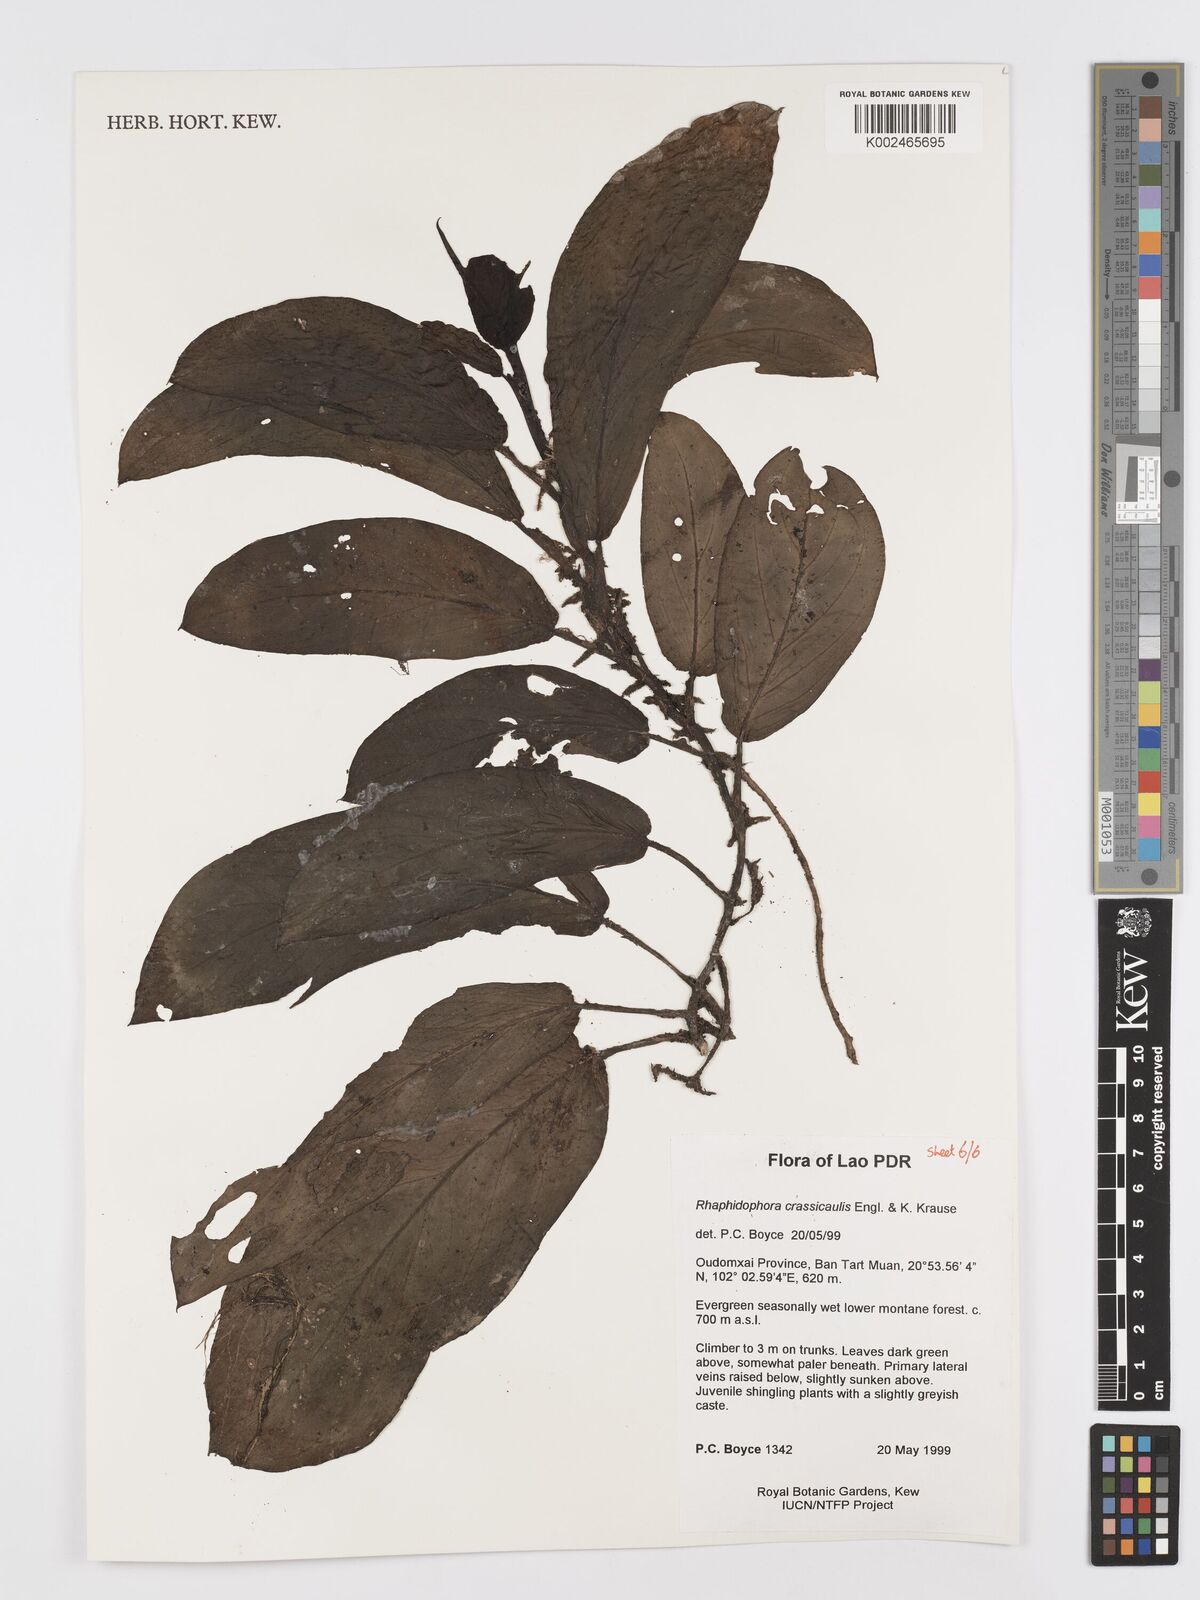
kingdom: Plantae
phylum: Tracheophyta
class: Liliopsida
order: Alismatales
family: Araceae
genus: Rhaphidophora
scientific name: Rhaphidophora crassicaulis
